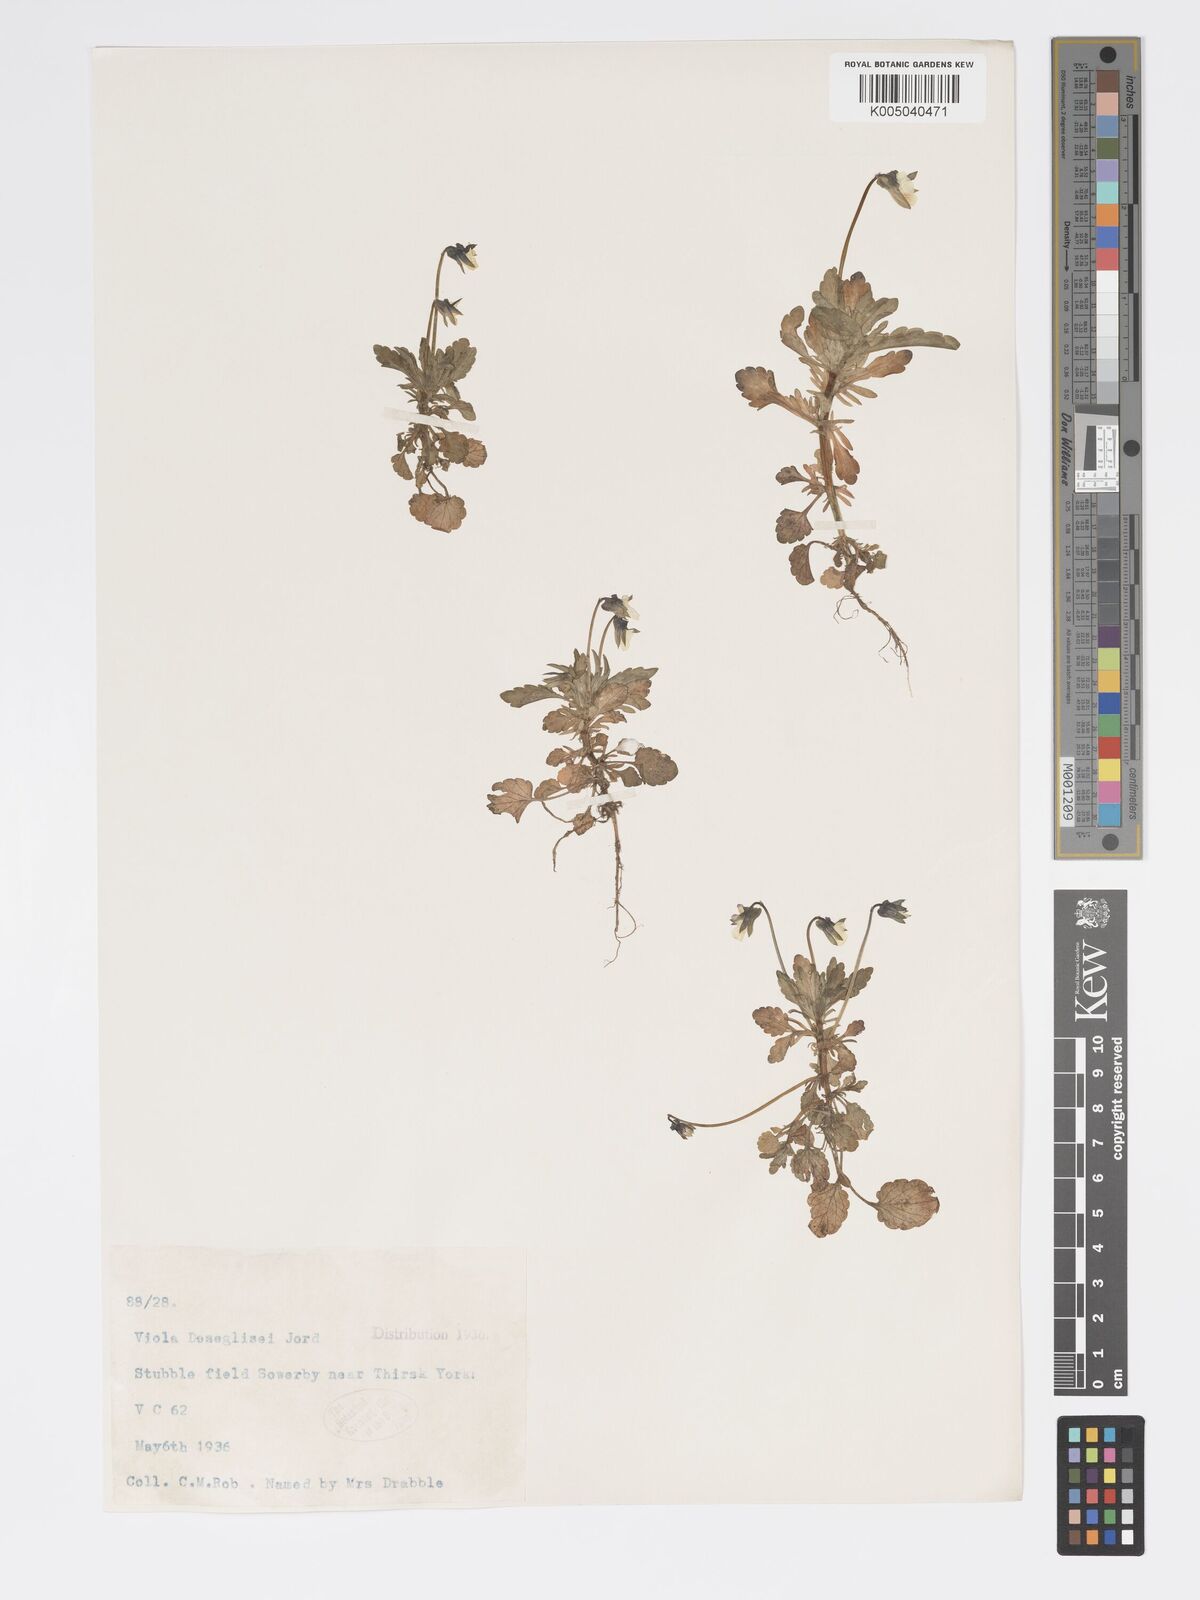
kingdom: Plantae
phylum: Tracheophyta
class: Magnoliopsida
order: Malpighiales
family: Violaceae
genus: Viola
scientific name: Viola arvensis
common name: Field pansy
